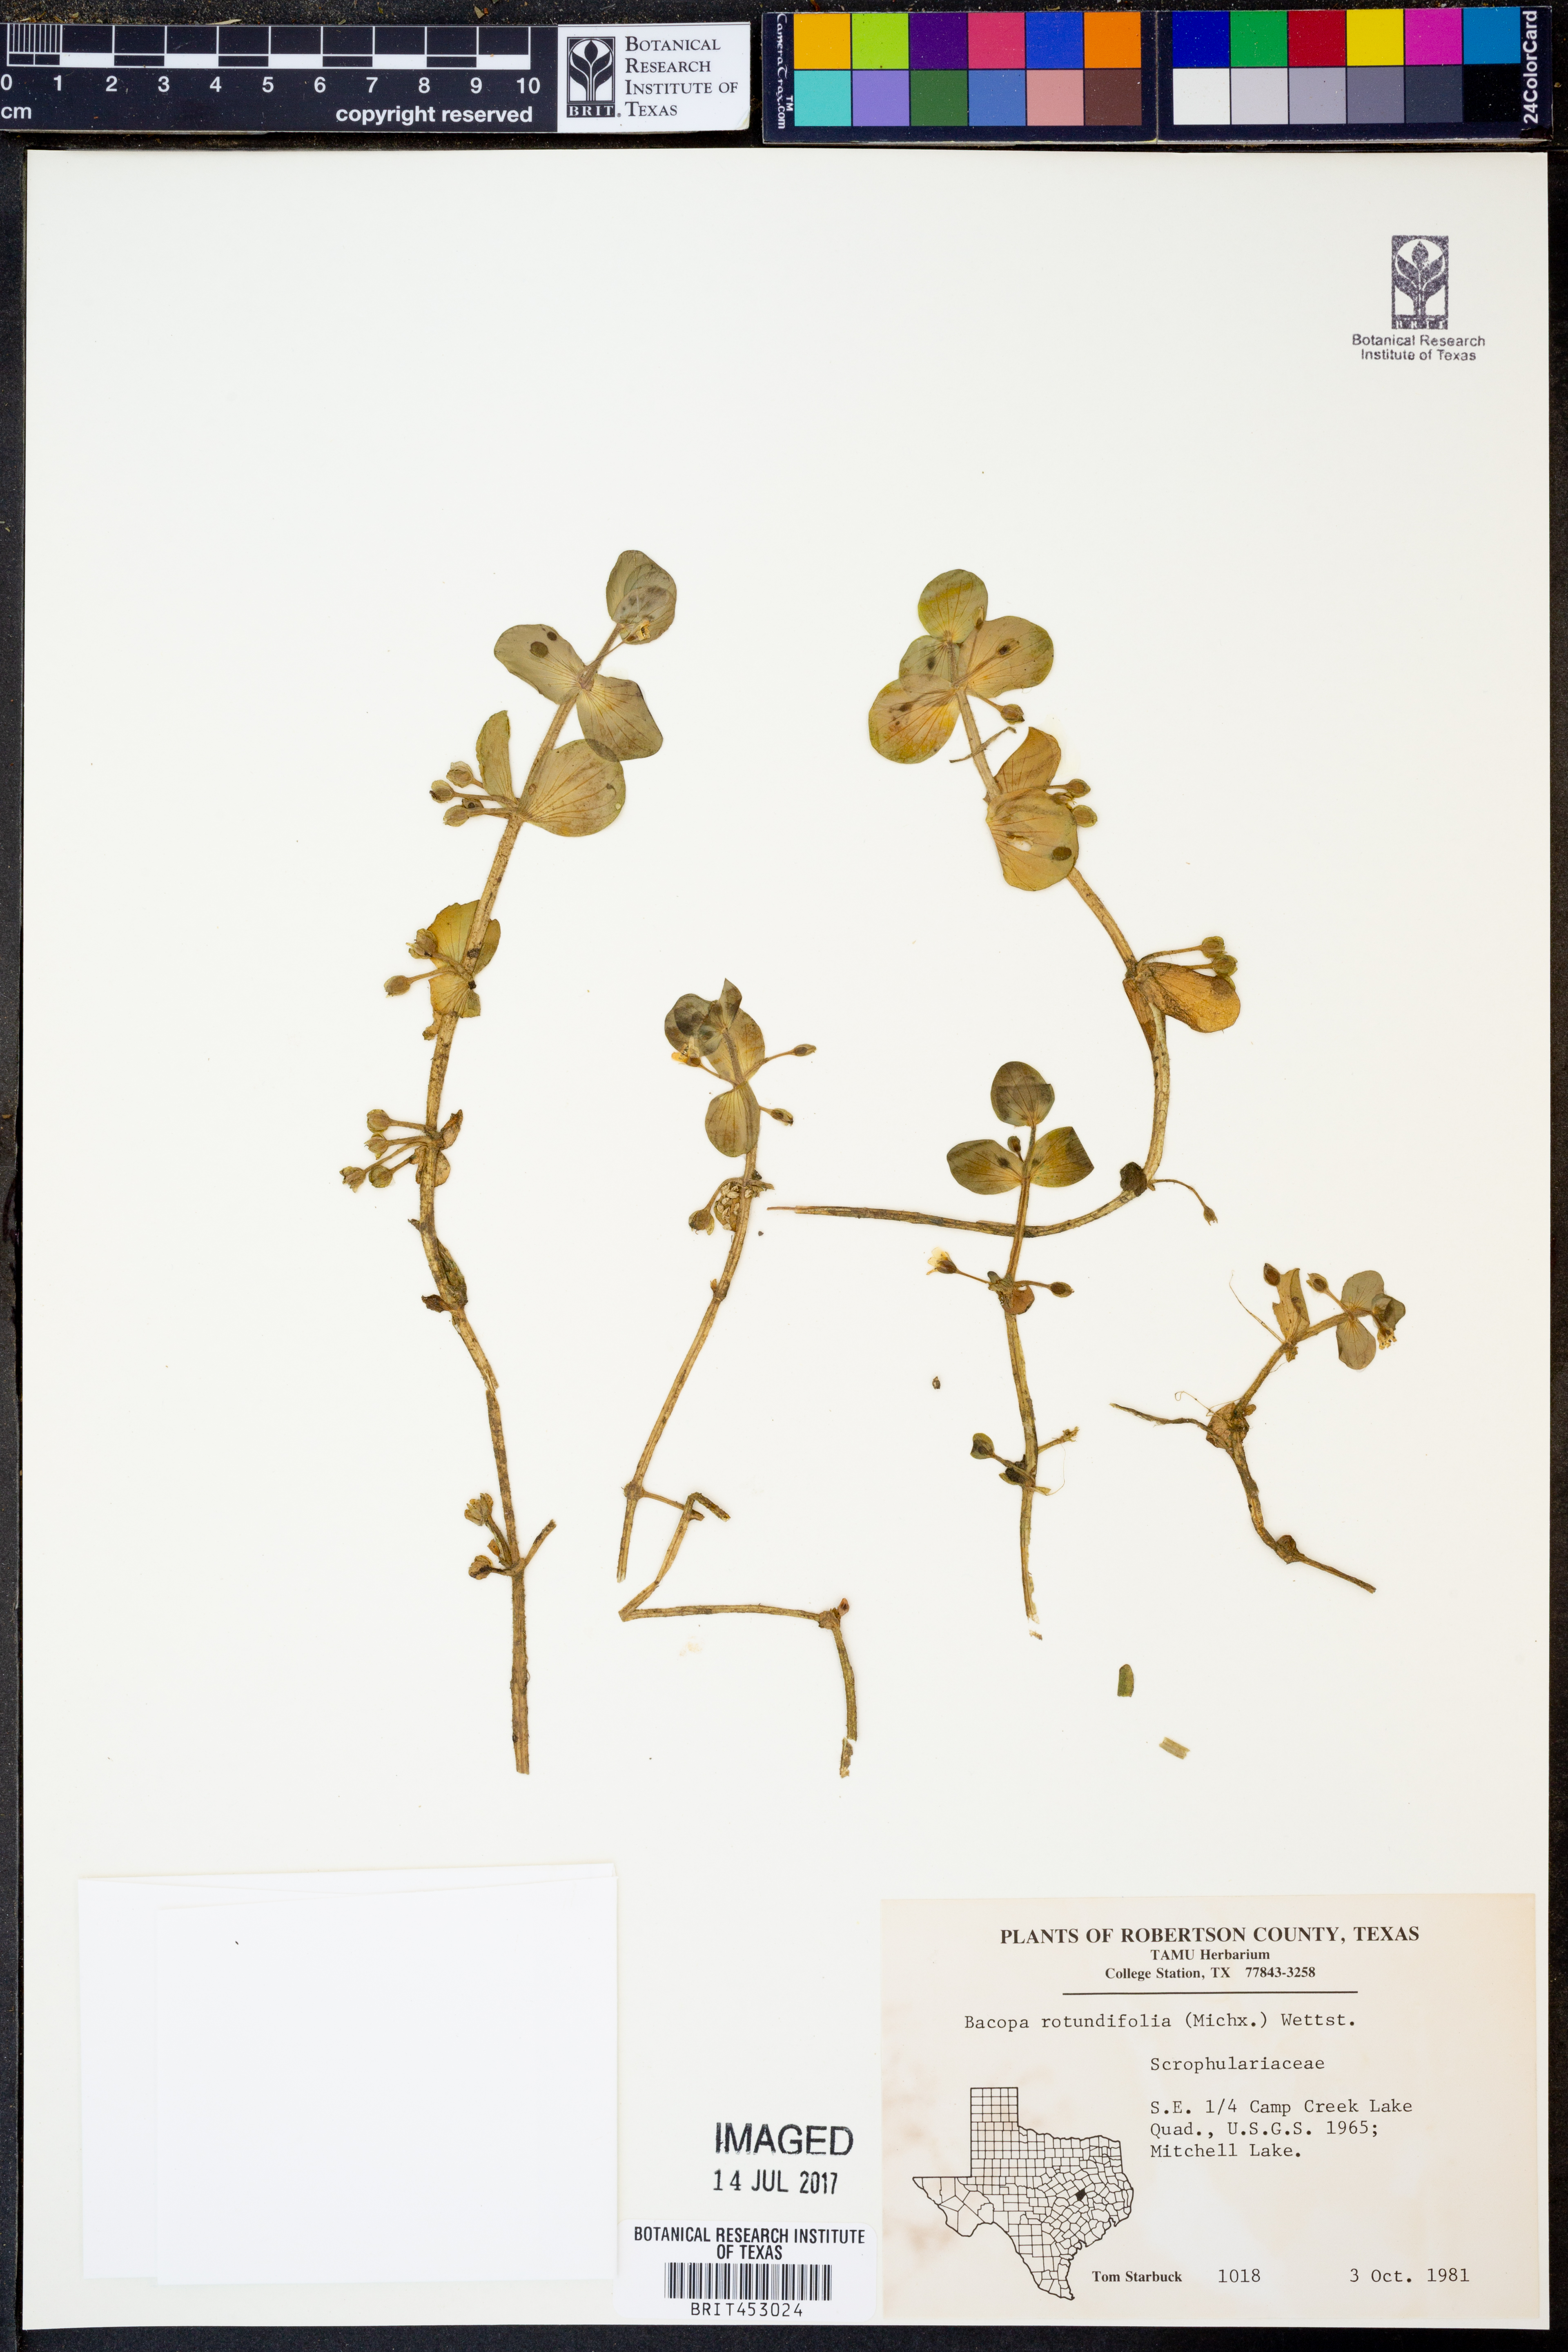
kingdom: Plantae
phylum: Tracheophyta
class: Magnoliopsida
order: Lamiales
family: Plantaginaceae
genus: Bacopa
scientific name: Bacopa rotundifolia
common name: Disc water hyssop
